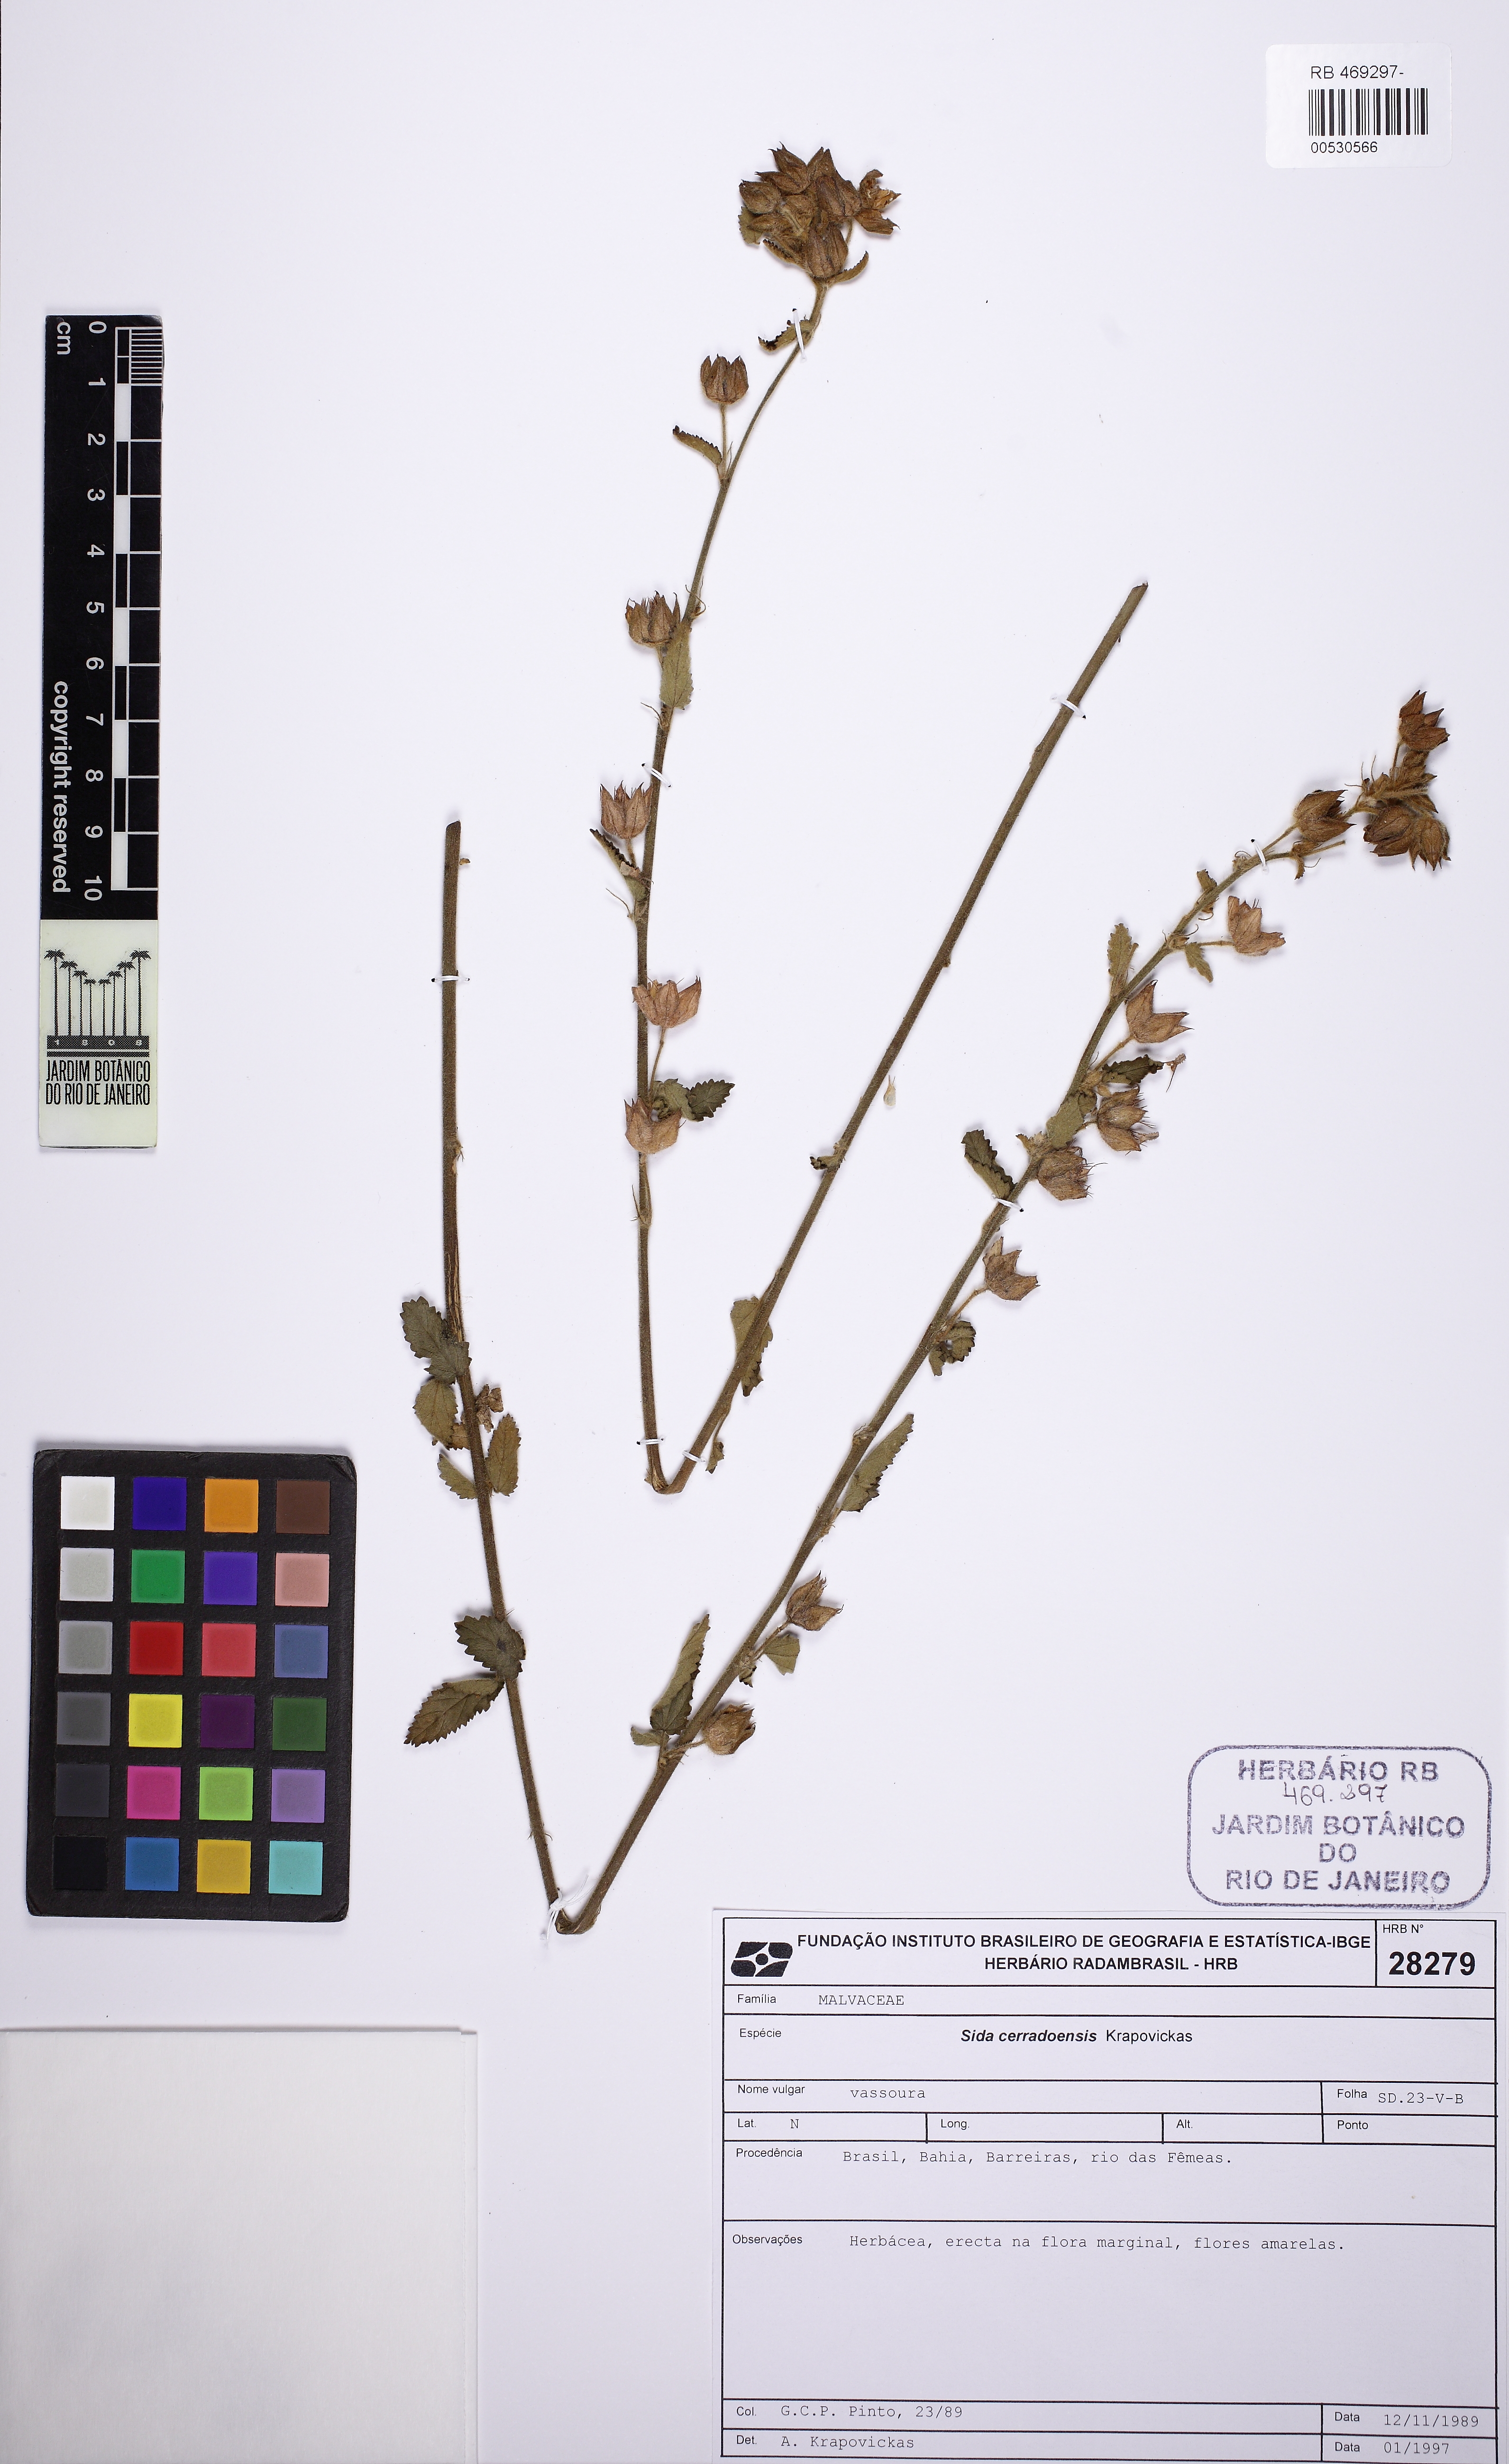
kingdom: Plantae
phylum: Tracheophyta
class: Magnoliopsida
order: Malvales
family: Malvaceae
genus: Sida
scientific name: Sida cerradoensis
